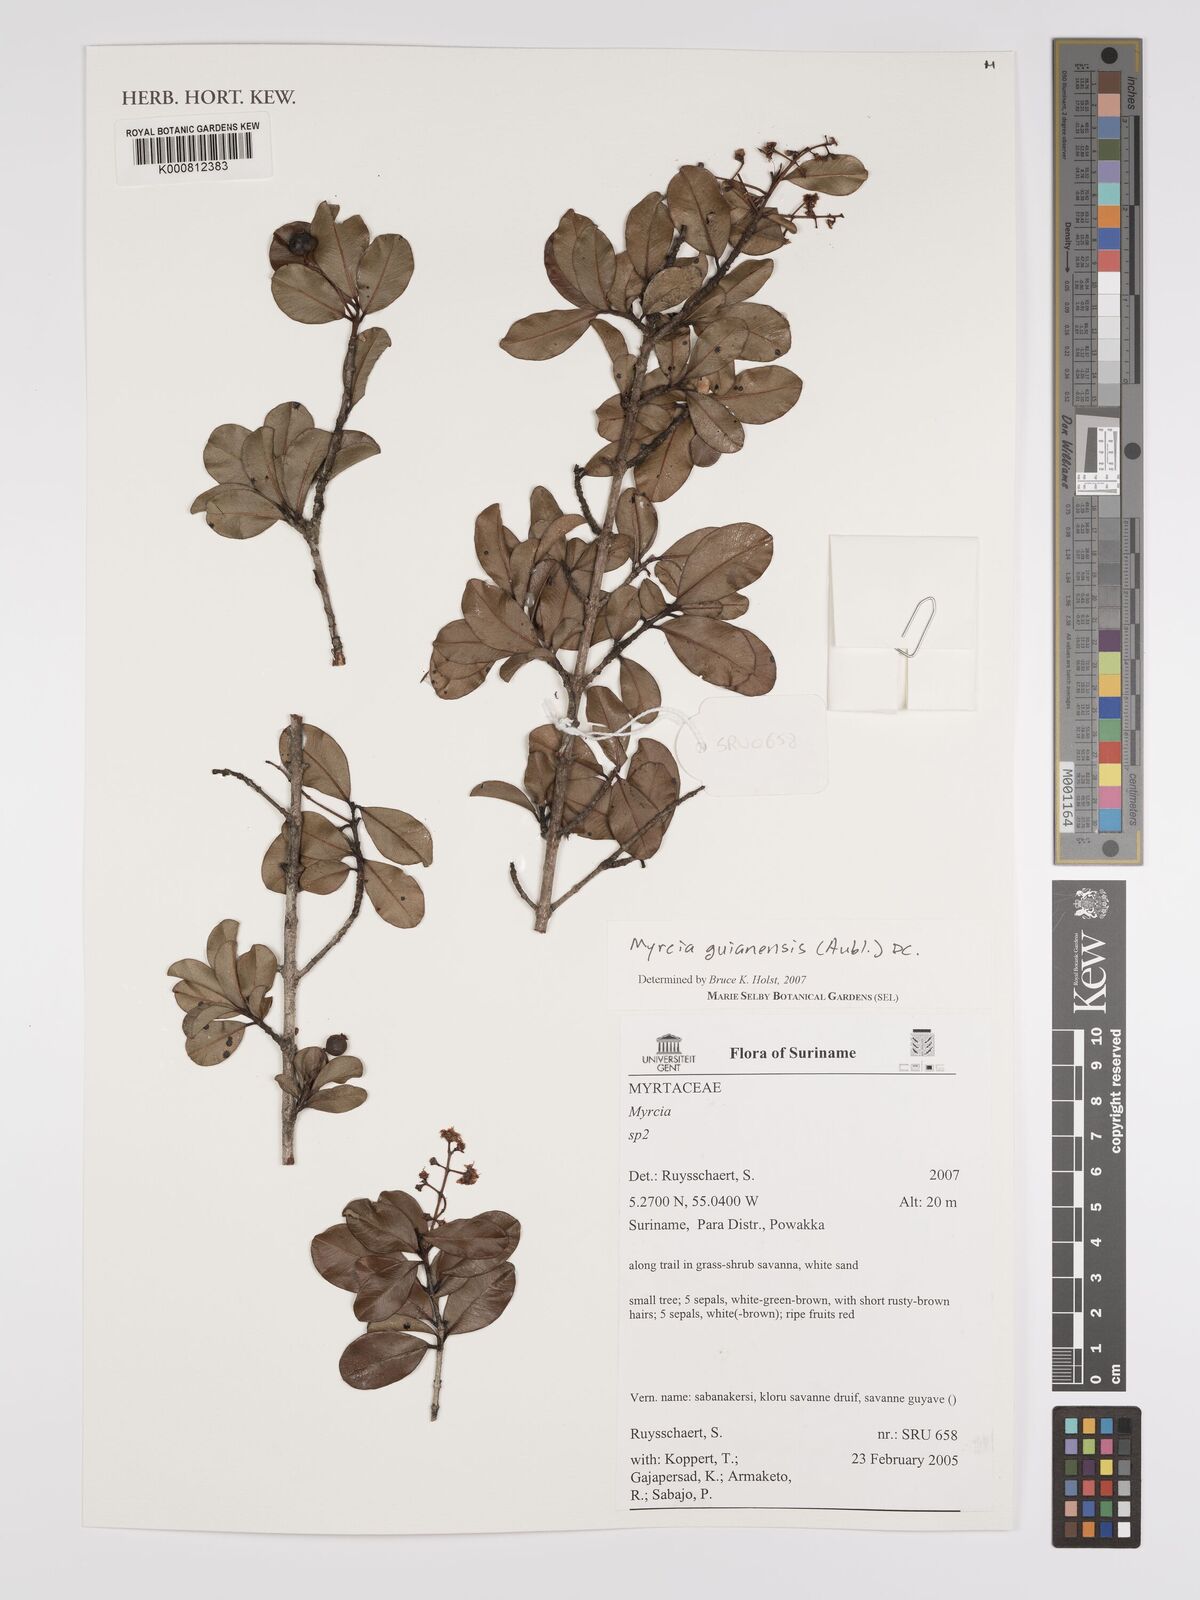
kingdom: Plantae
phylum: Tracheophyta
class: Magnoliopsida
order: Myrtales
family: Myrtaceae
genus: Myrcia
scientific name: Myrcia guianensis
